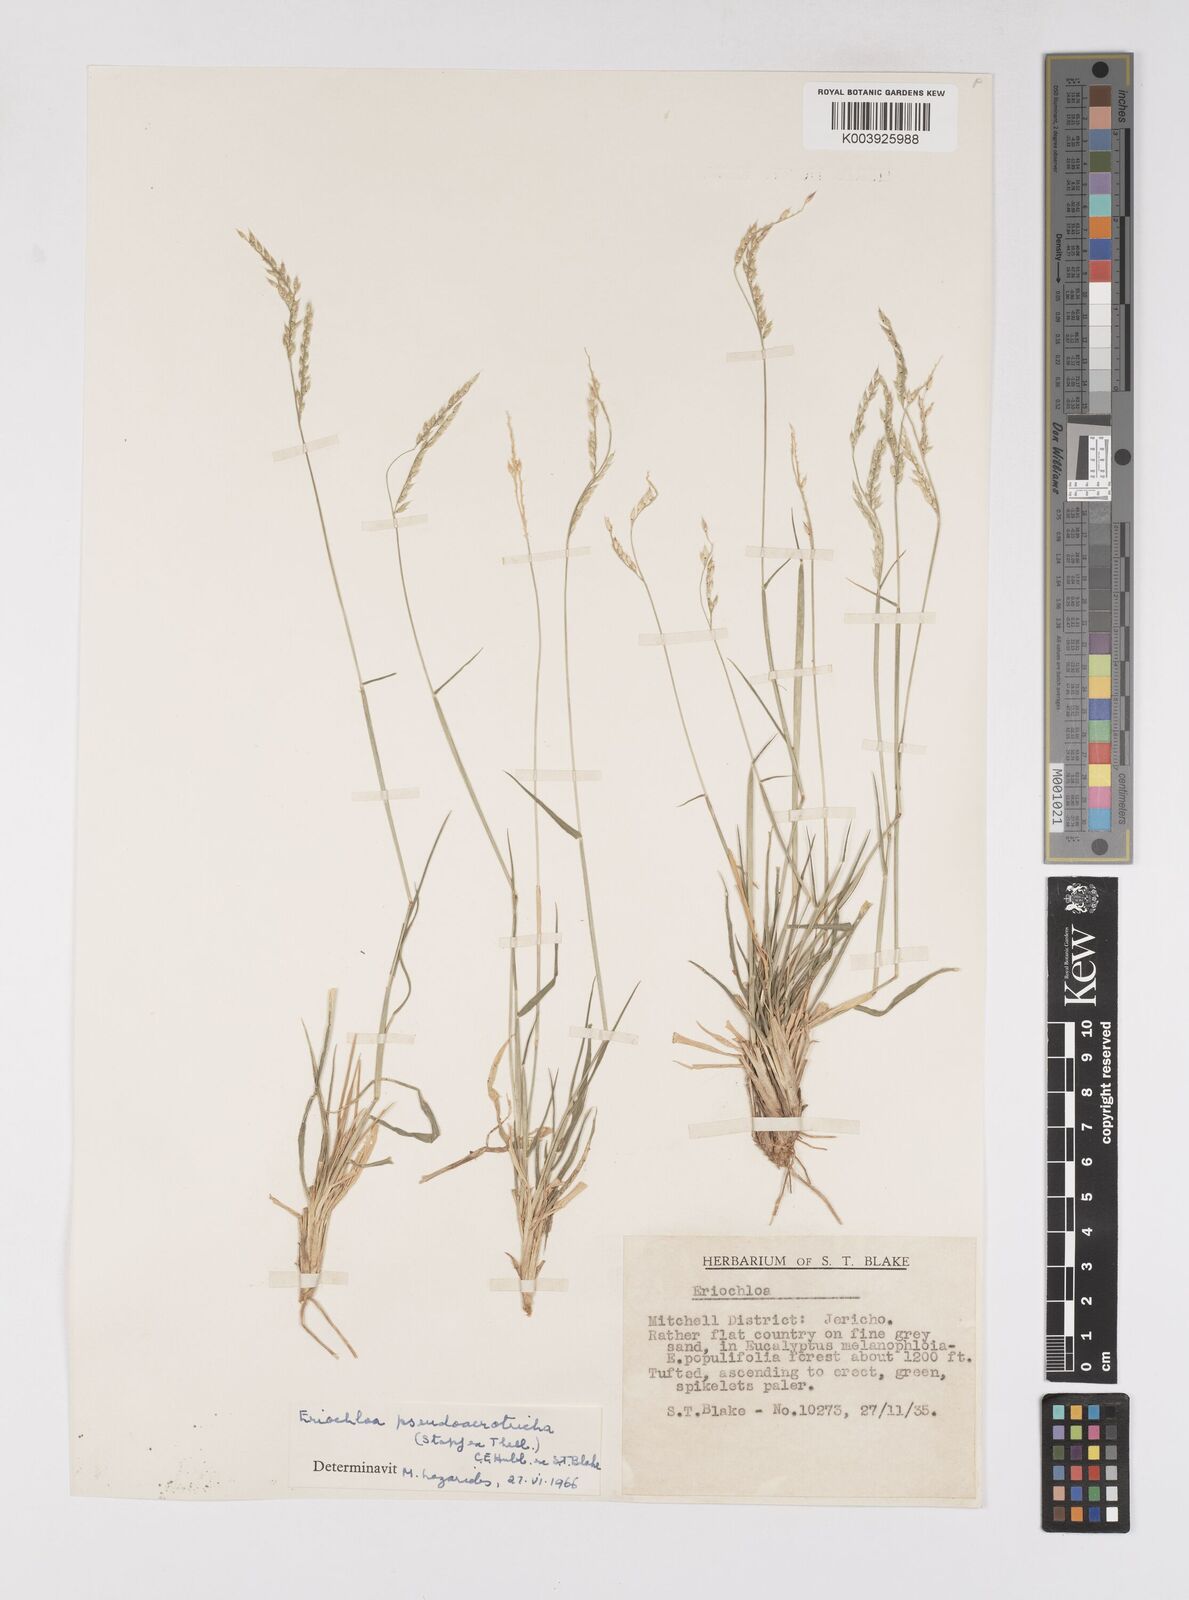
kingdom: Plantae
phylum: Tracheophyta
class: Liliopsida
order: Poales
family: Poaceae
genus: Eriochloa
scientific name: Eriochloa pseudoacrotricha
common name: Perennial cup-grass
